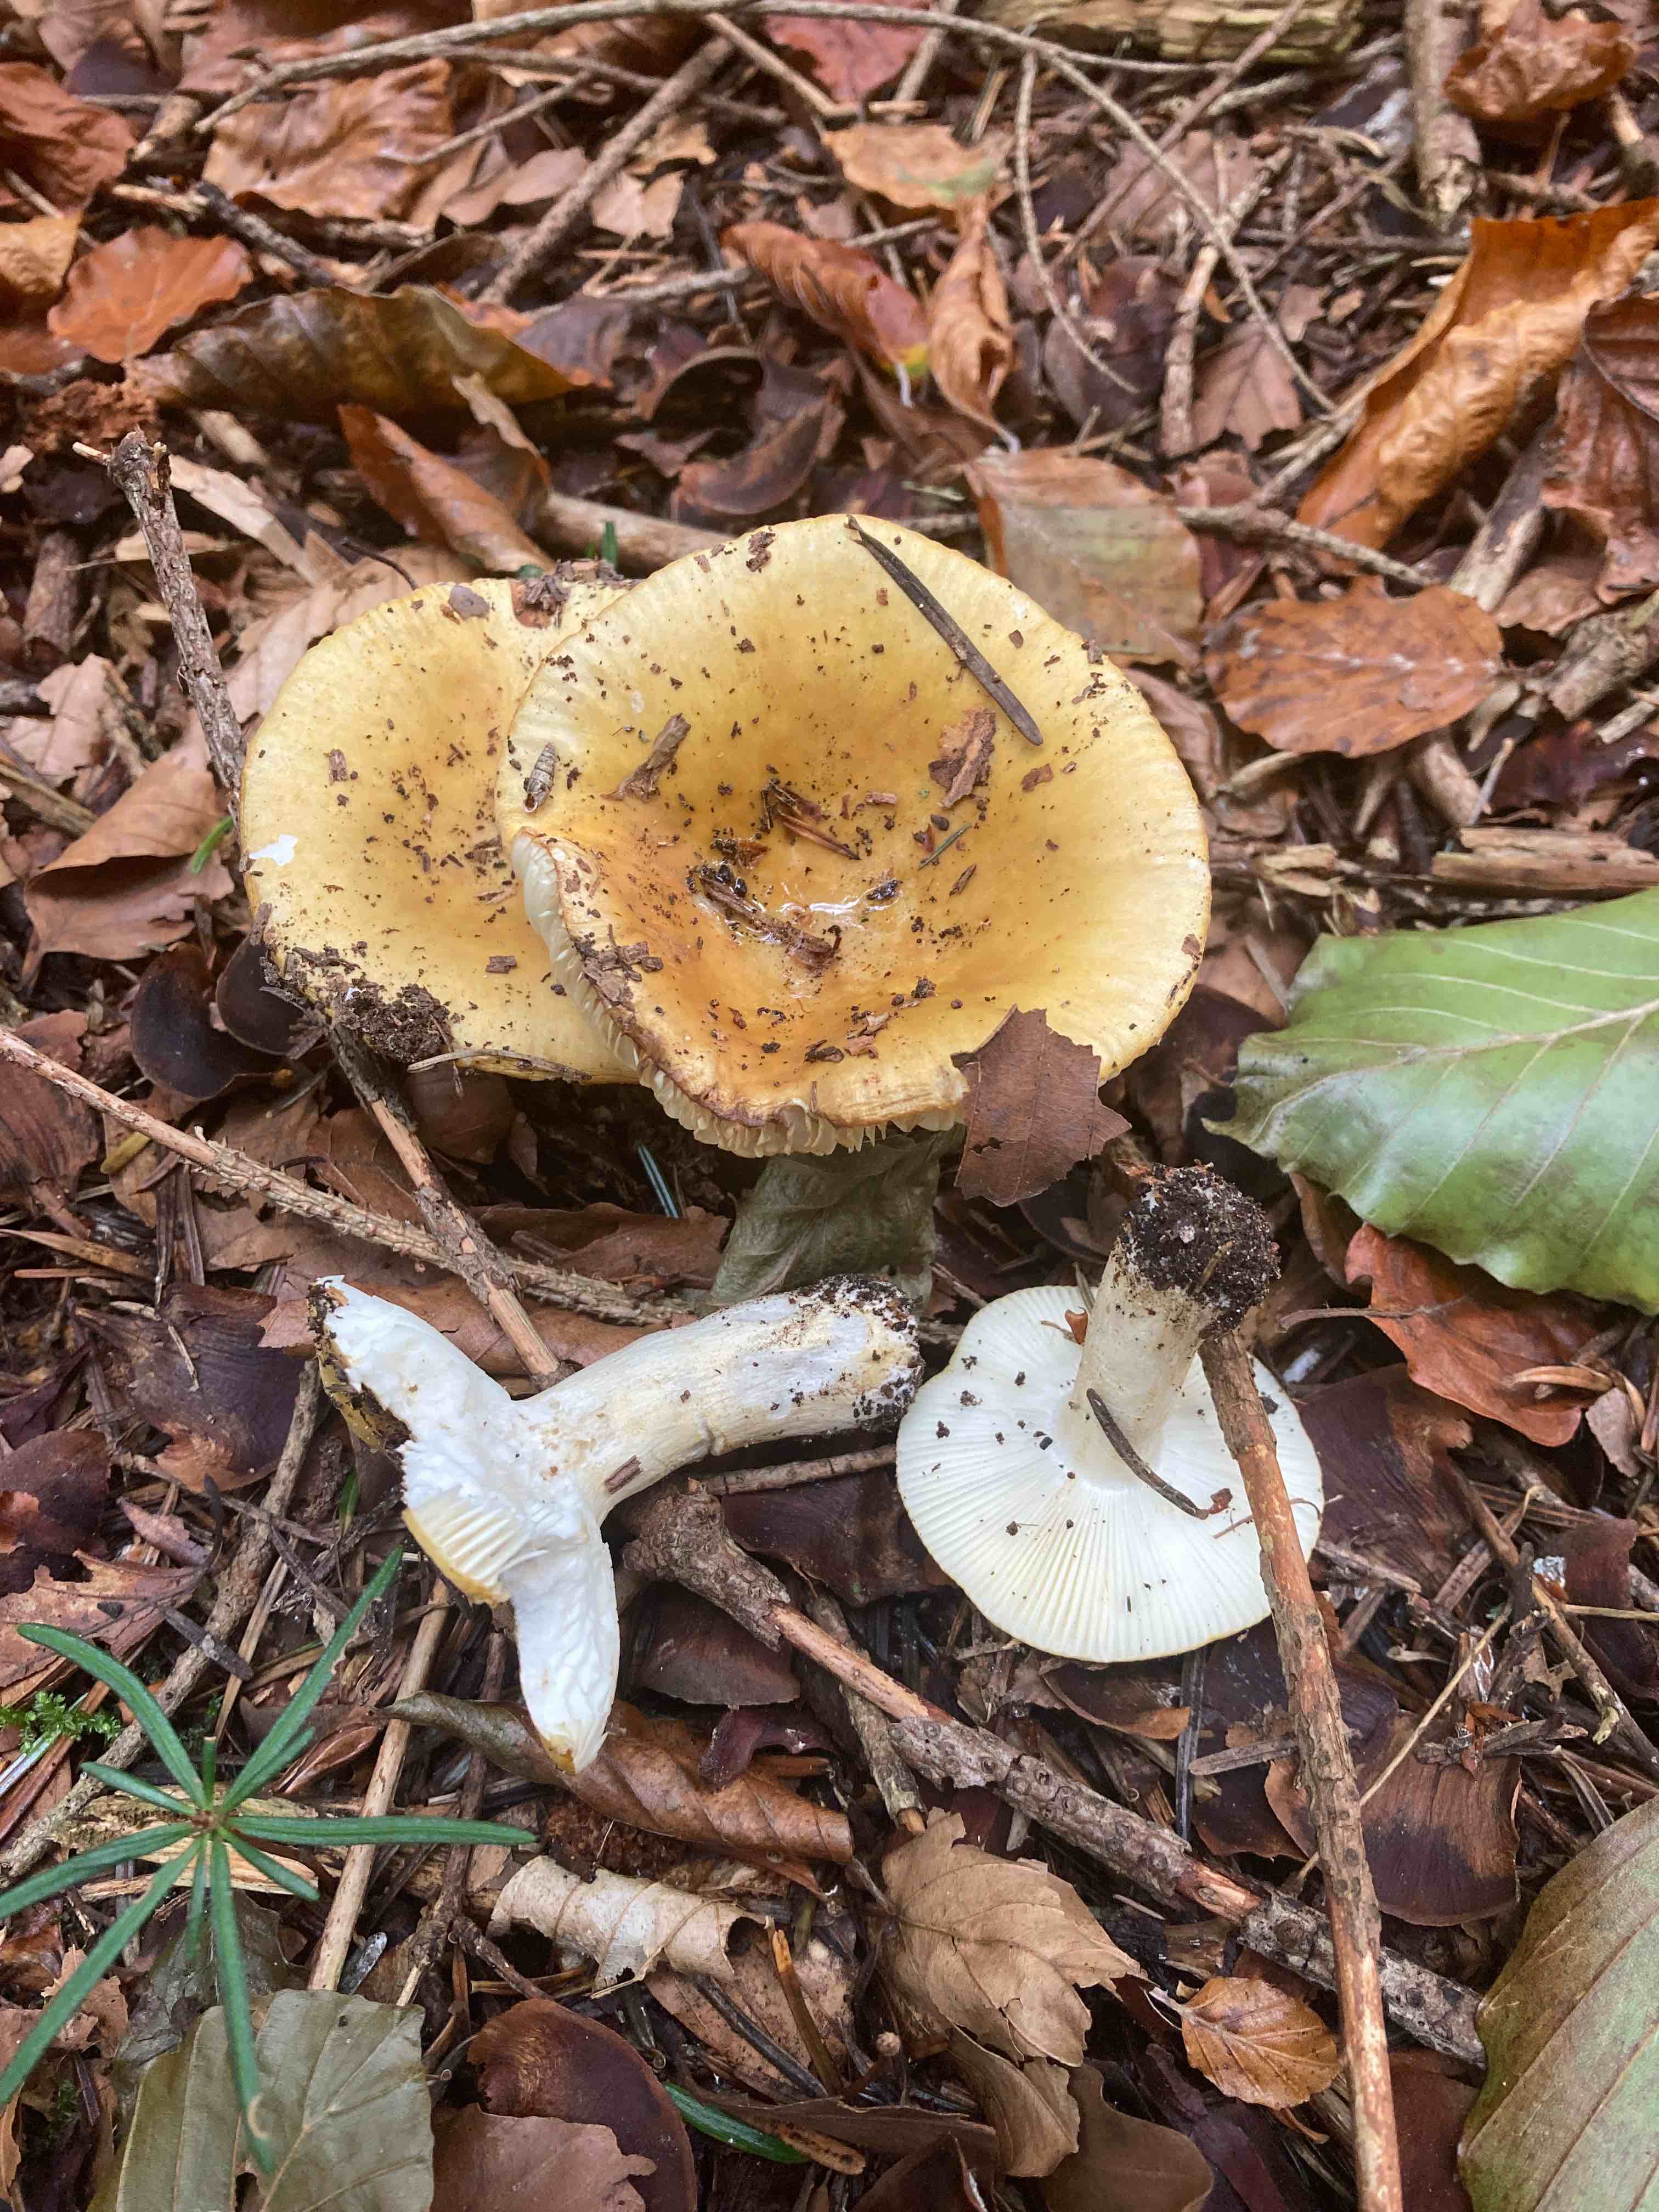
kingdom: Fungi
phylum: Basidiomycota
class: Agaricomycetes
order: Russulales
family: Russulaceae
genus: Russula
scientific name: Russula ochroleuca
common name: okkergul skørhat
